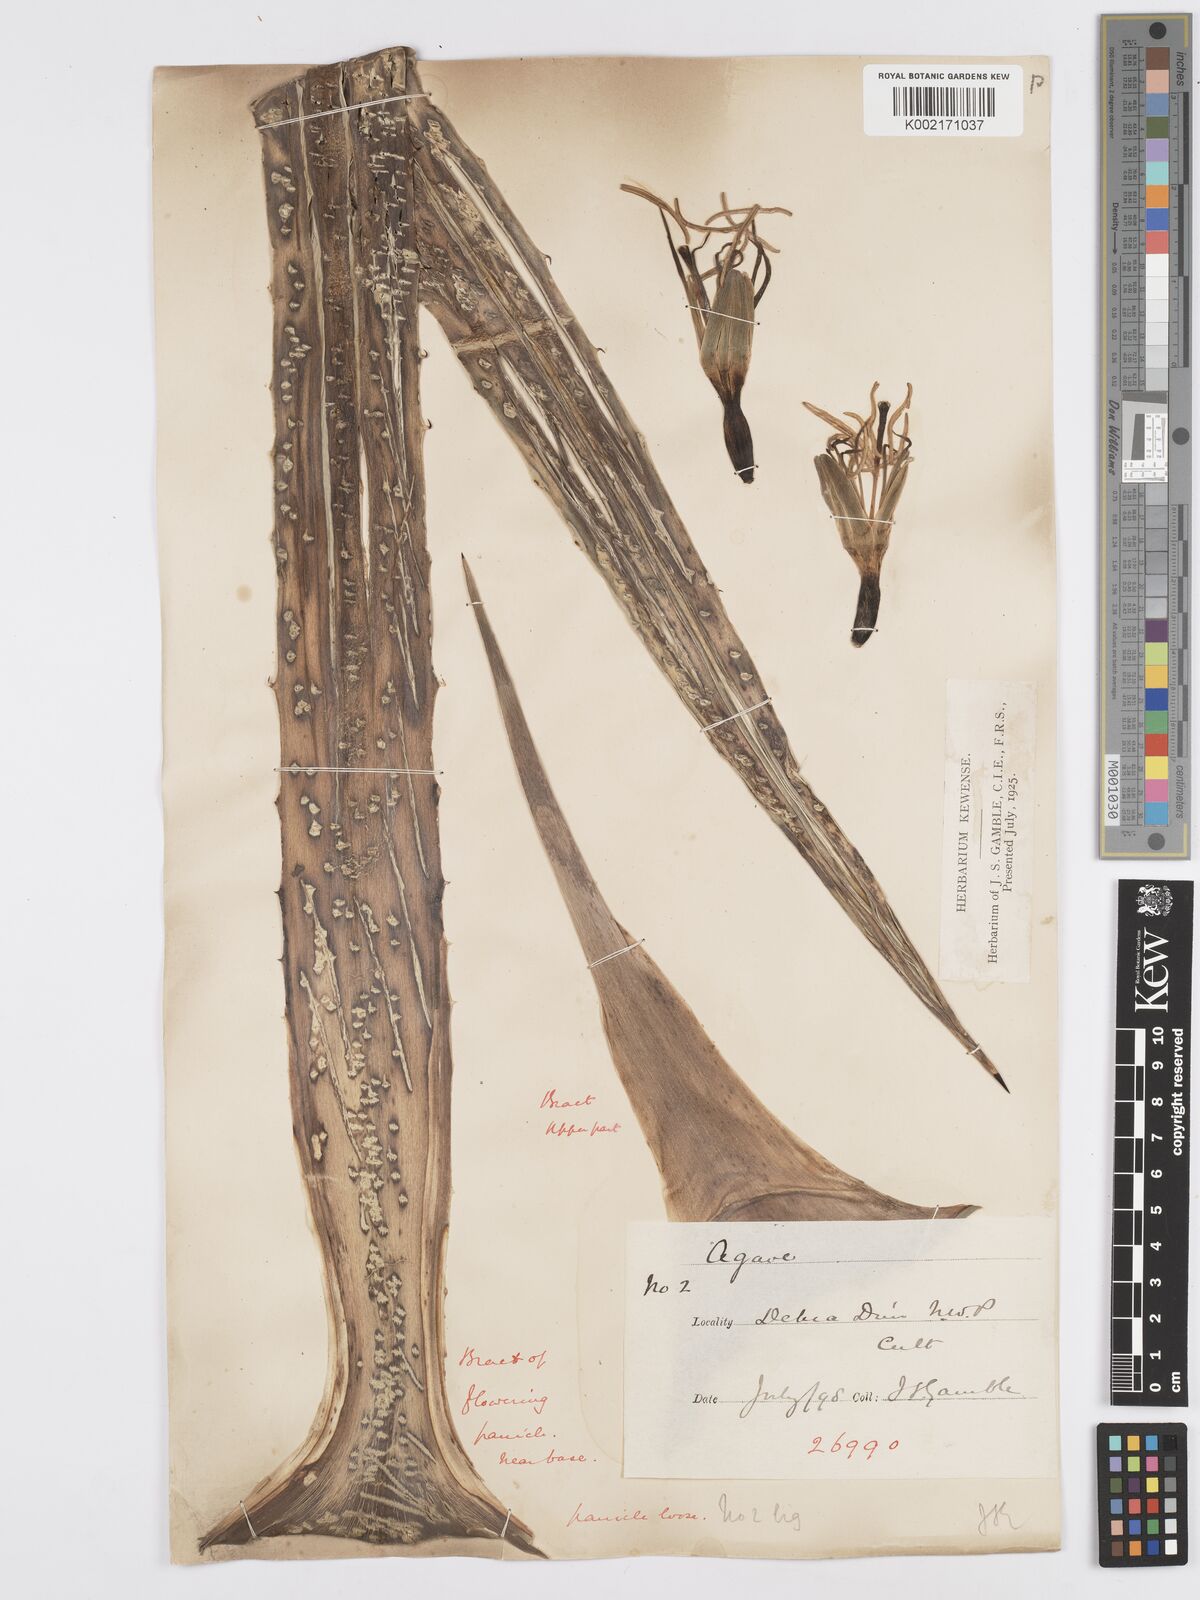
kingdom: Plantae
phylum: Tracheophyta
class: Liliopsida
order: Asparagales
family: Asparagaceae
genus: Agave
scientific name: Agave americana
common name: Centuryplant
